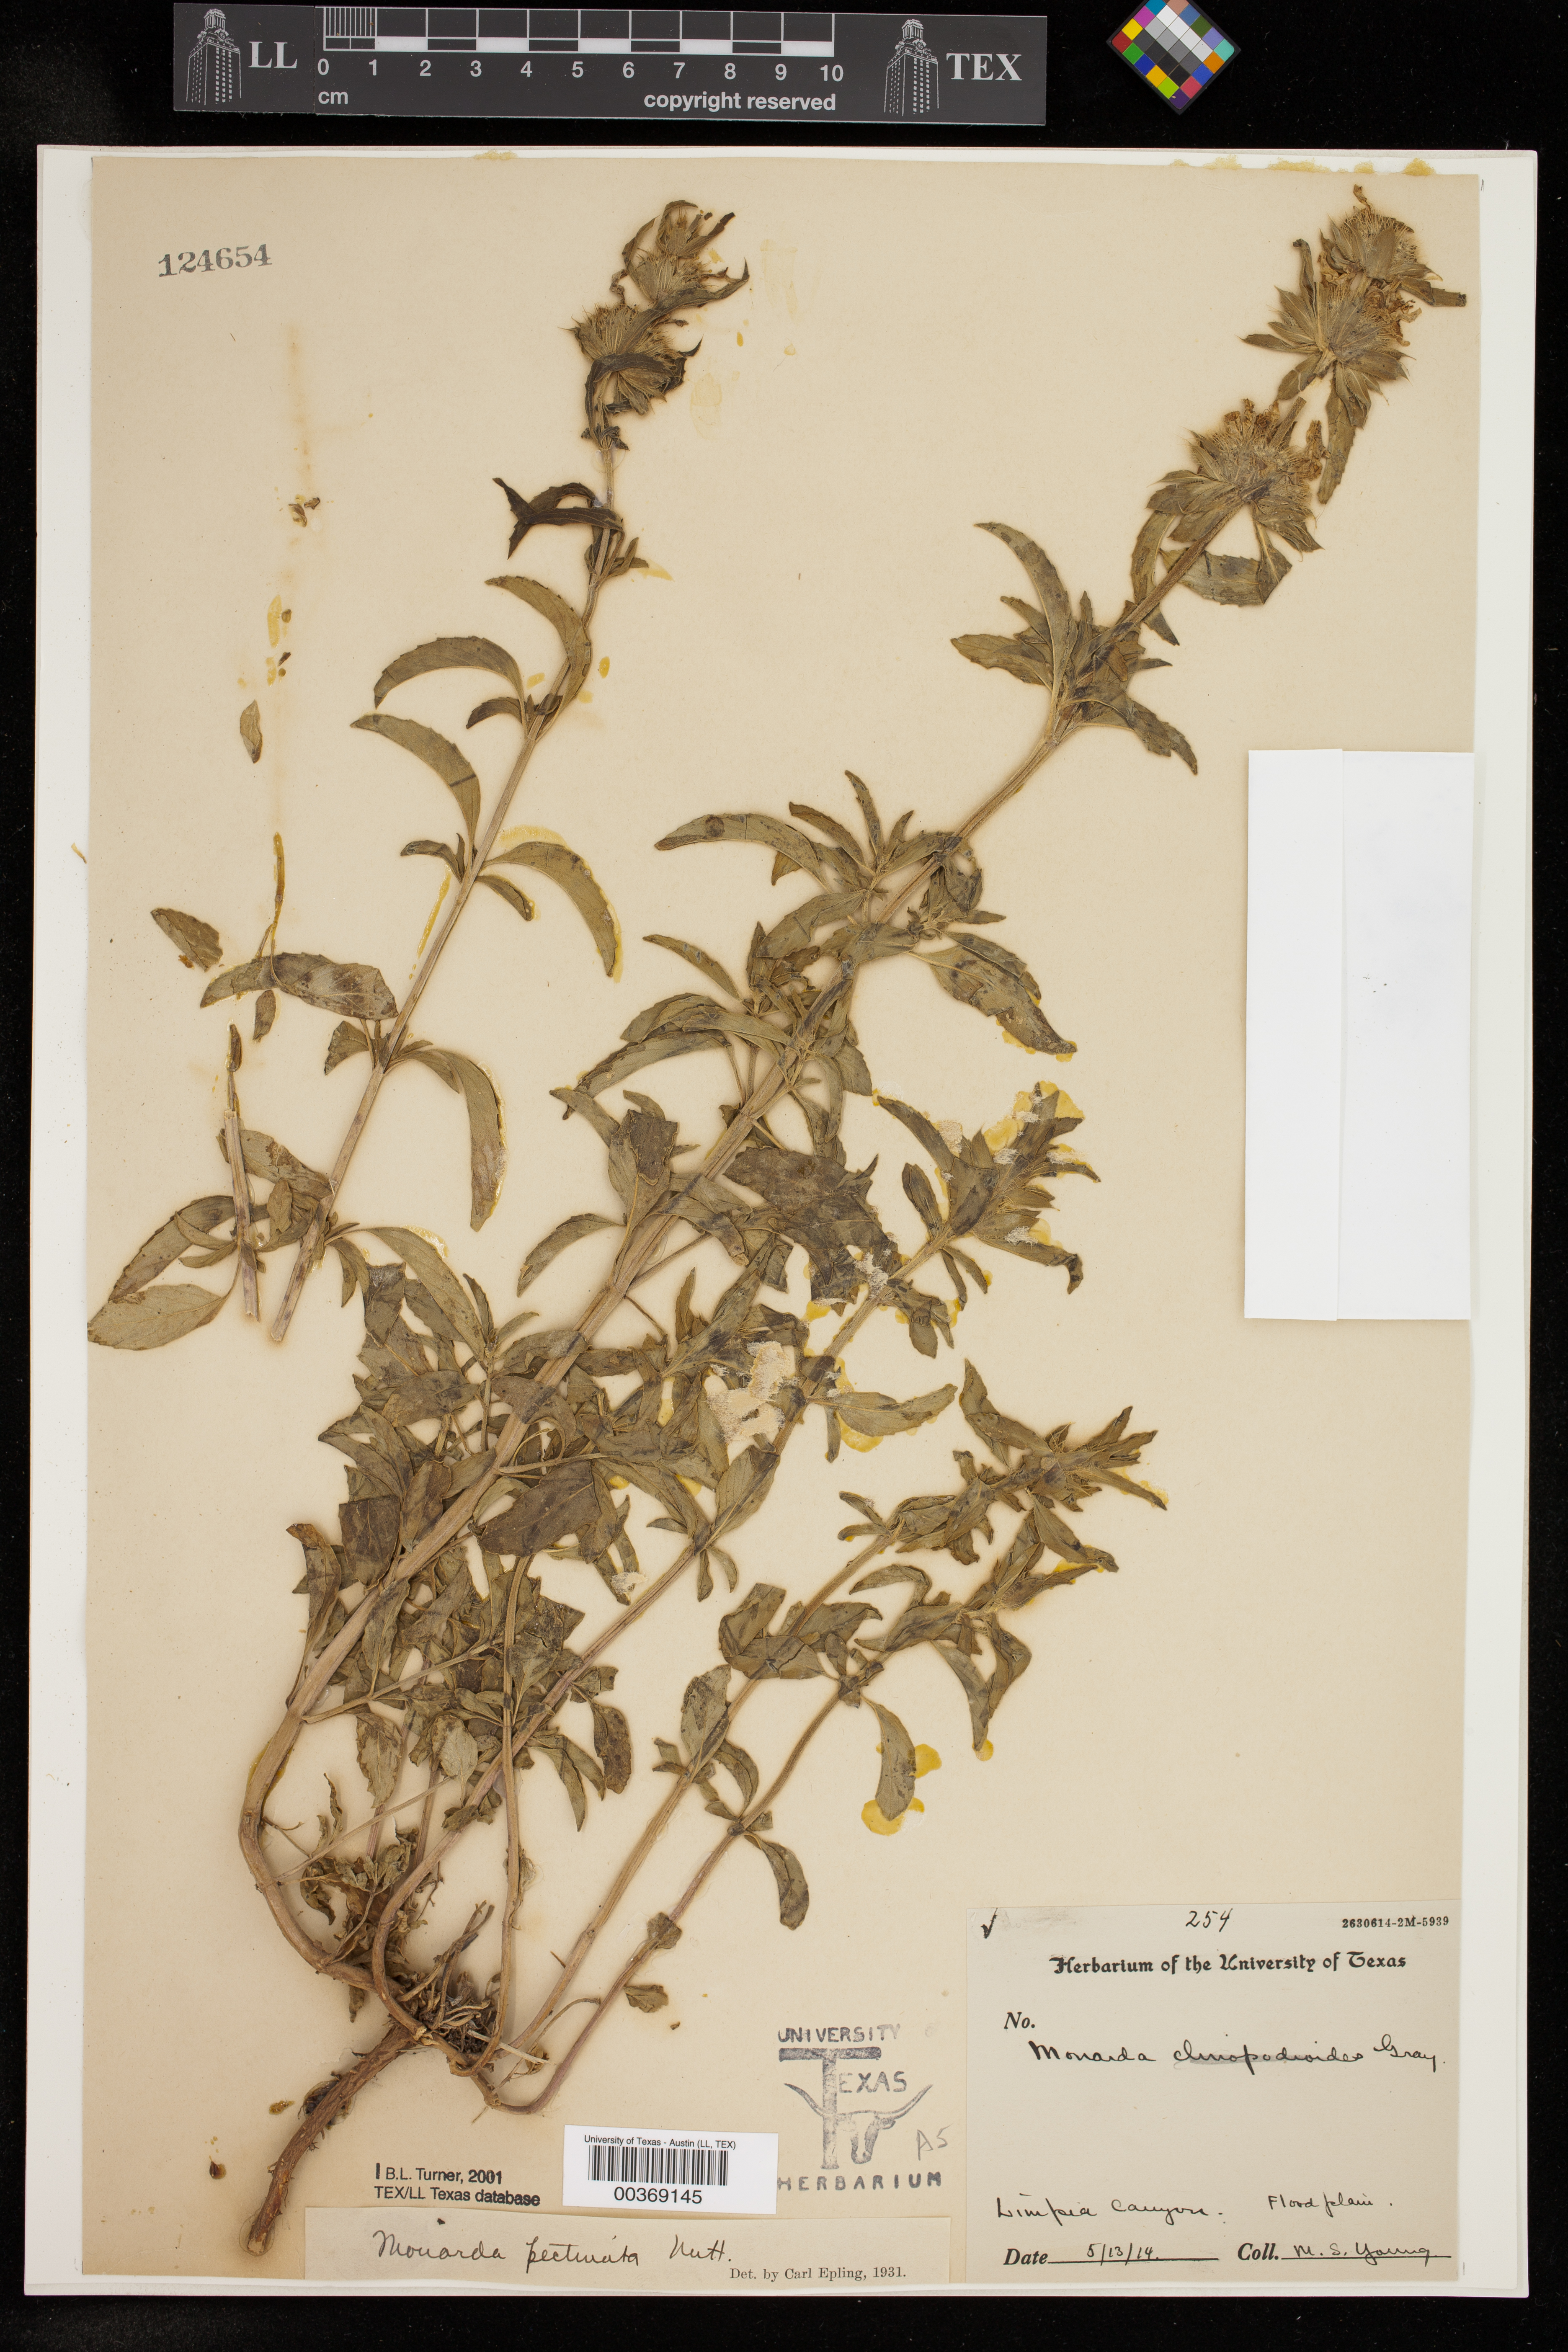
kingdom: Plantae
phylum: Tracheophyta
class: Magnoliopsida
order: Lamiales
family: Lamiaceae
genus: Monarda
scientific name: Monarda pectinata
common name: Plains beebalm
